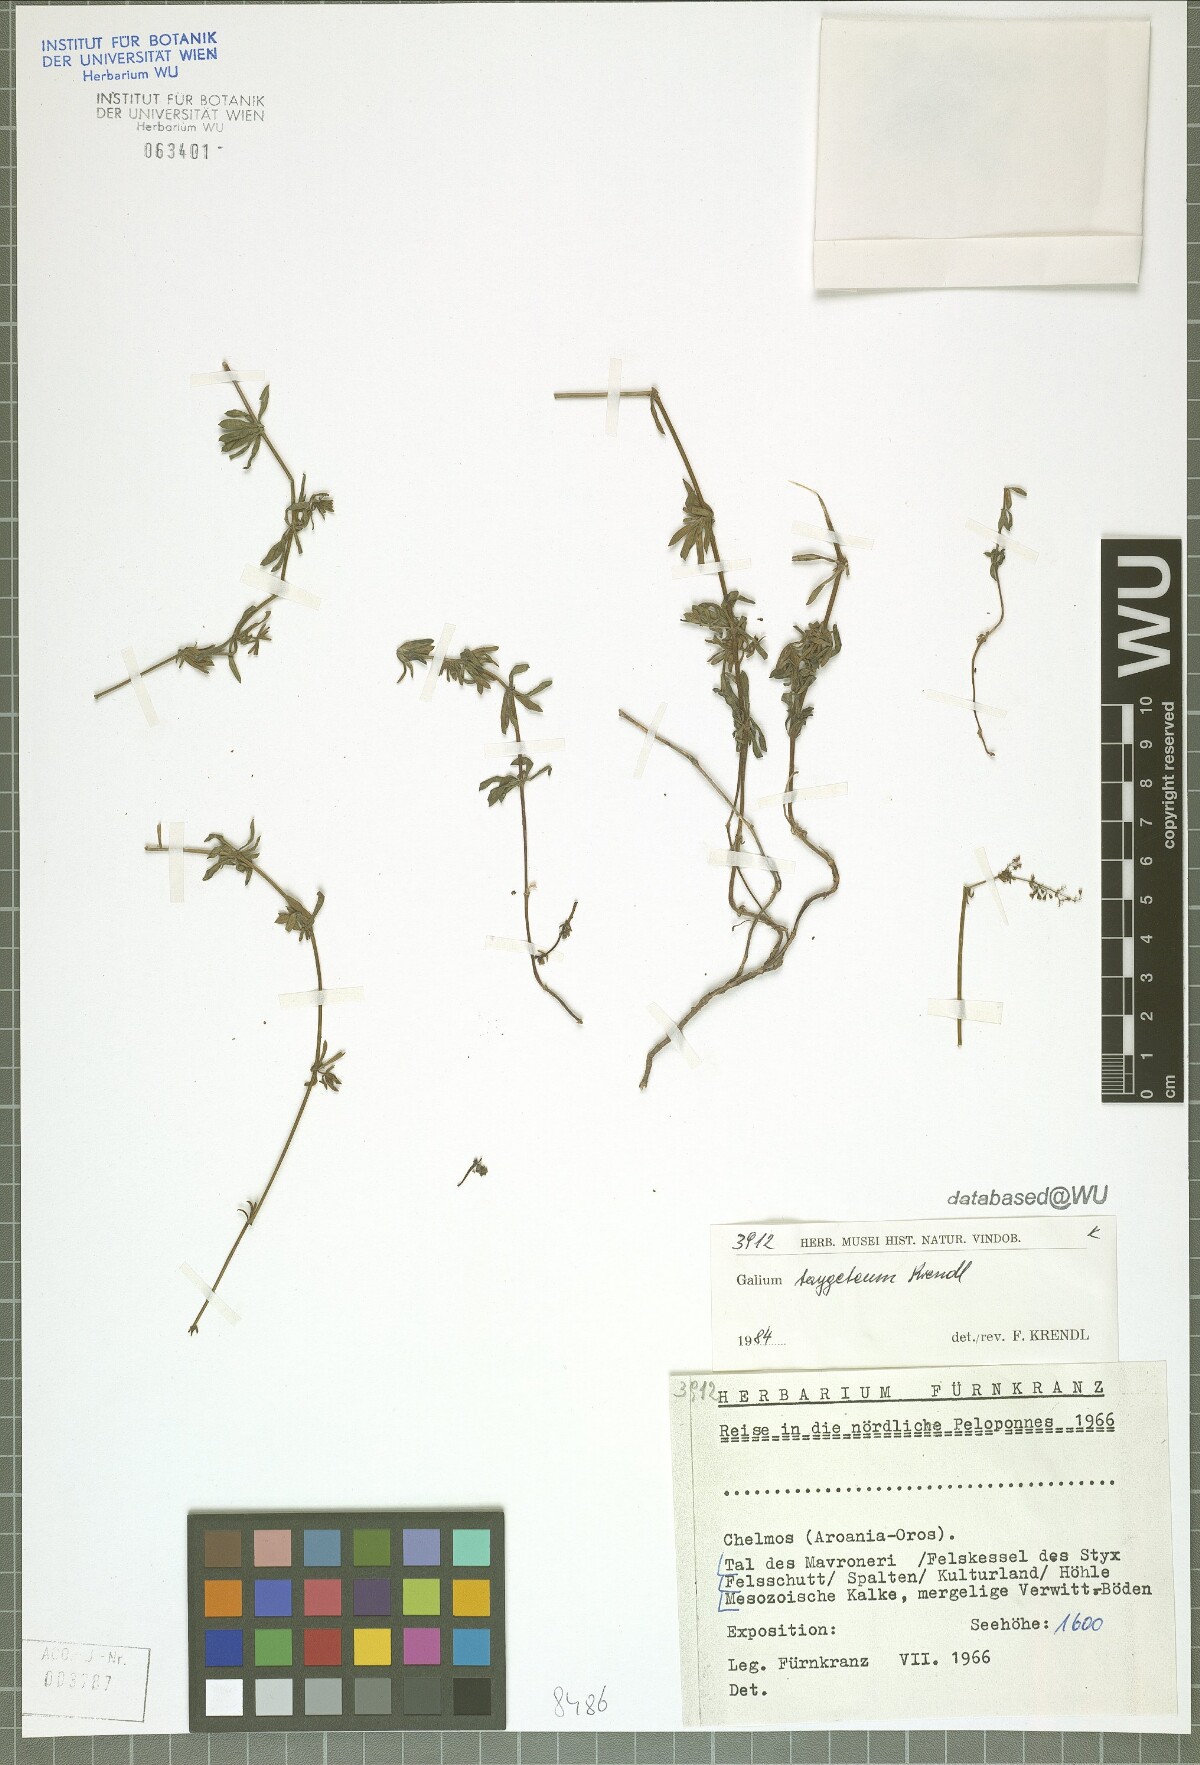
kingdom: Plantae
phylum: Tracheophyta
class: Magnoliopsida
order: Gentianales
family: Rubiaceae
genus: Galium
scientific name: Galium taygeteum
